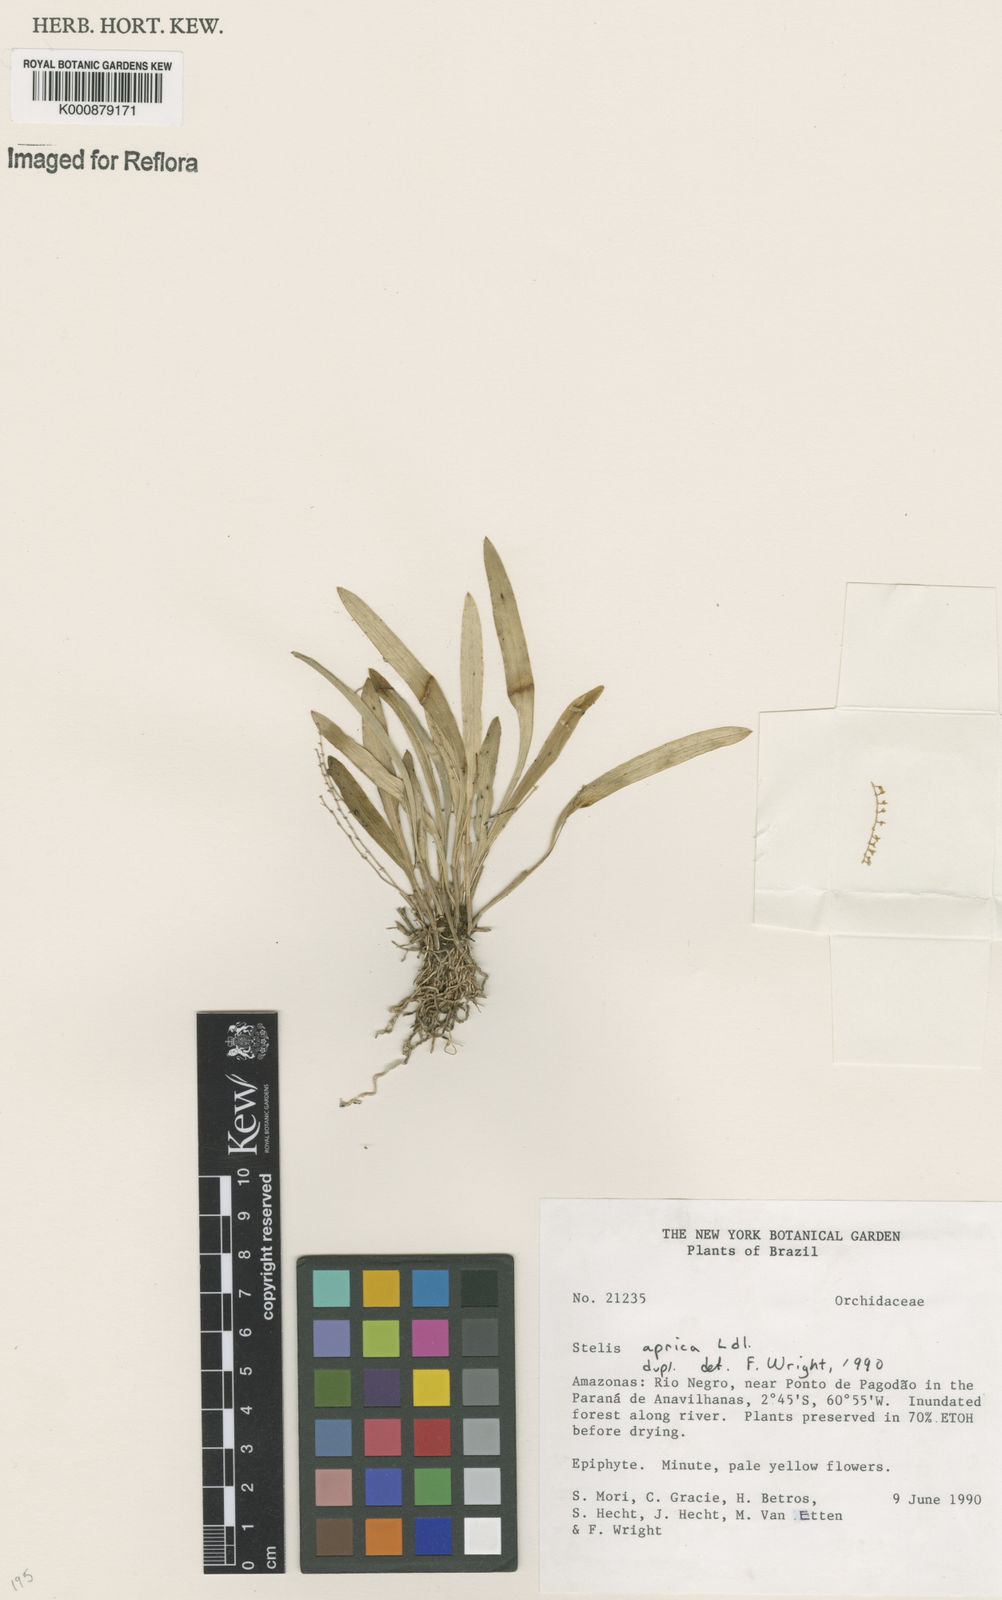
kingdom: Plantae
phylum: Tracheophyta
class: Liliopsida
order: Asparagales
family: Orchidaceae
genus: Stelis
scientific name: Stelis aprica
